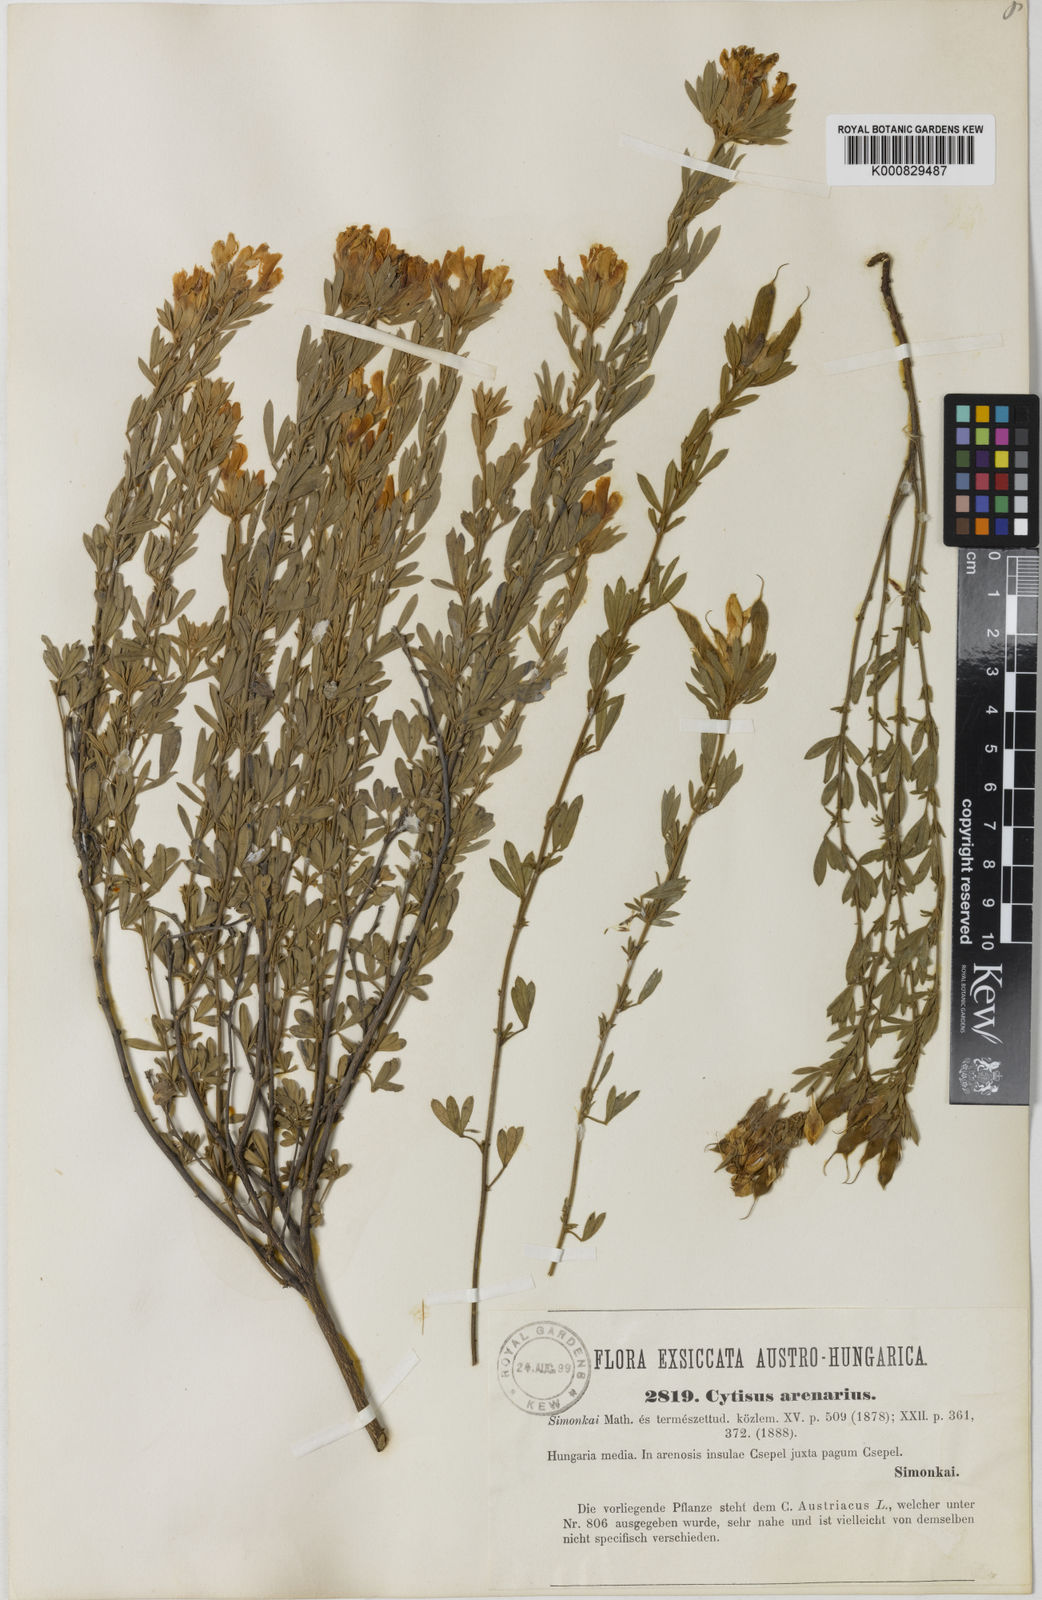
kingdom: Plantae
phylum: Tracheophyta
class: Magnoliopsida
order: Fabales
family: Fabaceae
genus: Cytisophyllum
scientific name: Cytisophyllum Cytisus heuffelii
